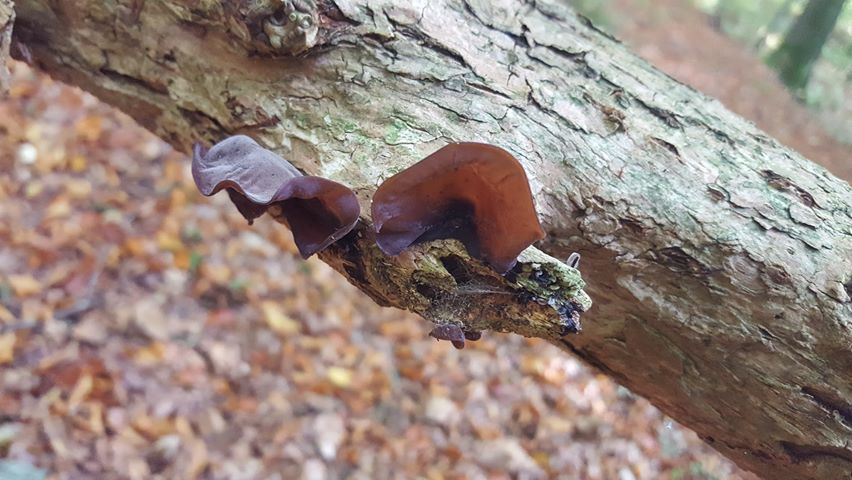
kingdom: Fungi
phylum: Basidiomycota
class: Agaricomycetes
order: Auriculariales
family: Auriculariaceae
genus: Auricularia
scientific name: Auricularia auricula-judae
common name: almindelig judasøre
